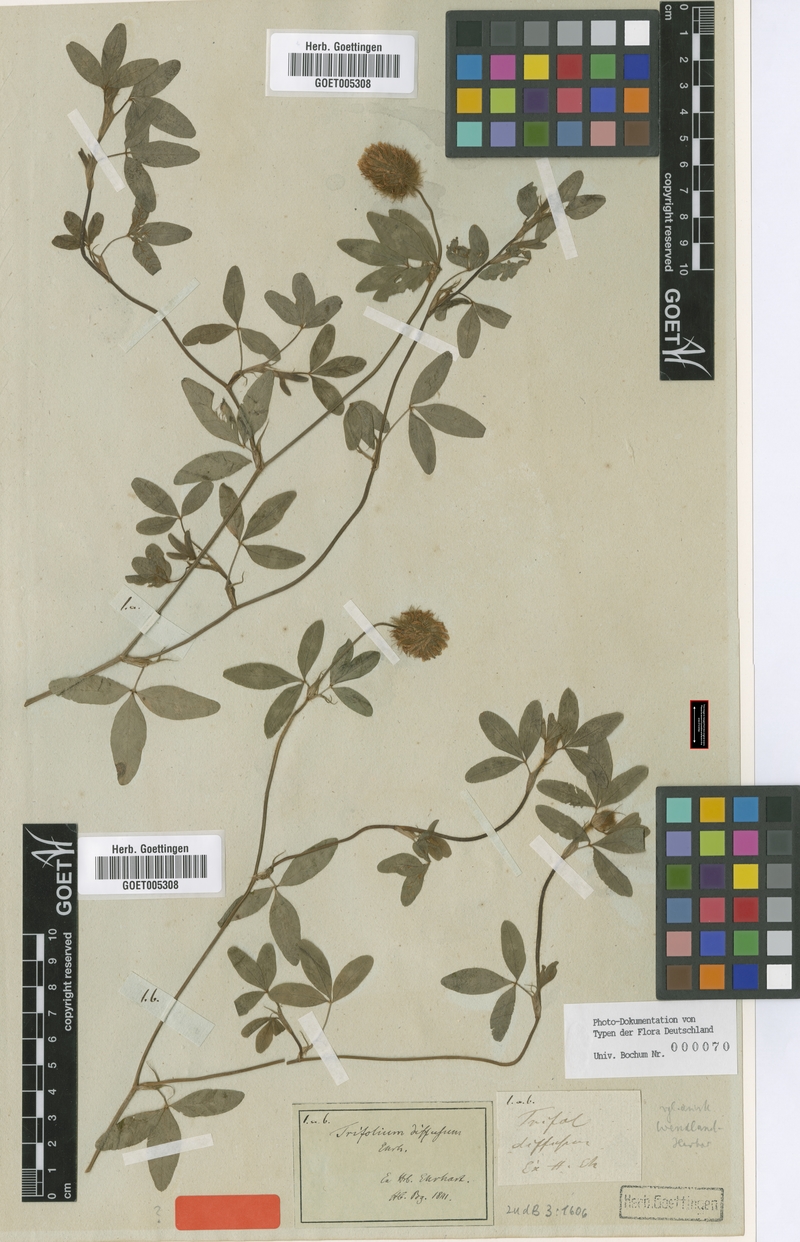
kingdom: Plantae
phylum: Tracheophyta
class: Magnoliopsida
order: Fabales
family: Fabaceae
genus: Trifolium
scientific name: Trifolium diffusum
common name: Diffuse clover
